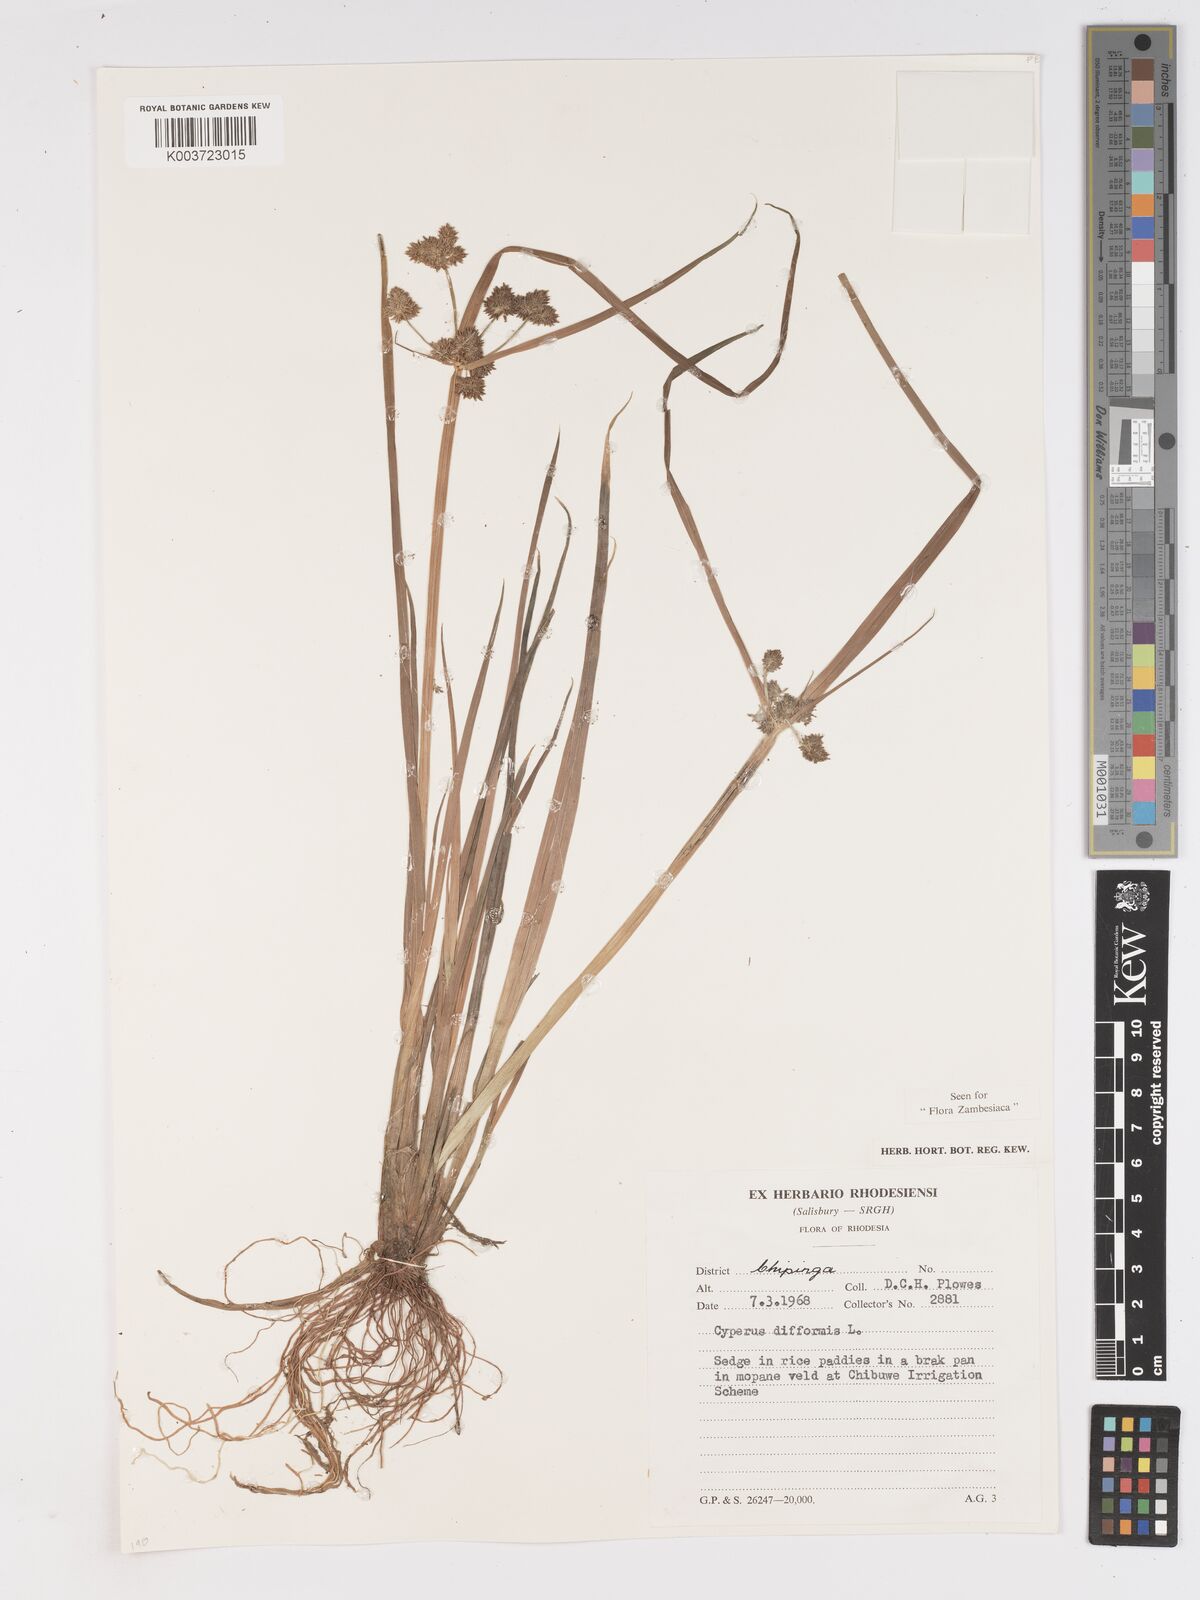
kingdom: Plantae
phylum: Tracheophyta
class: Liliopsida
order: Poales
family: Cyperaceae
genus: Cyperus
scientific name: Cyperus difformis
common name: Variable flatsedge
